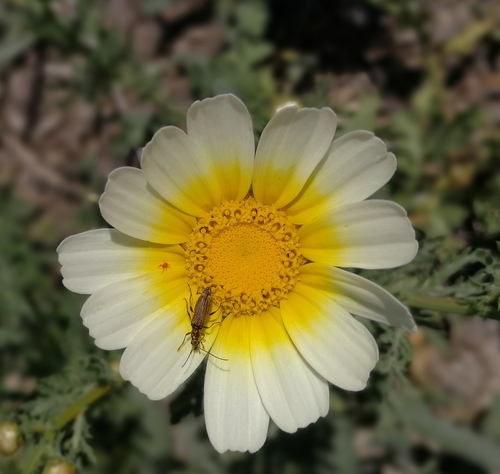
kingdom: Plantae
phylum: Tracheophyta
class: Magnoliopsida
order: Asterales
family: Asteraceae
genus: Glebionis
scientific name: Glebionis coronaria
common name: Crowndaisy
